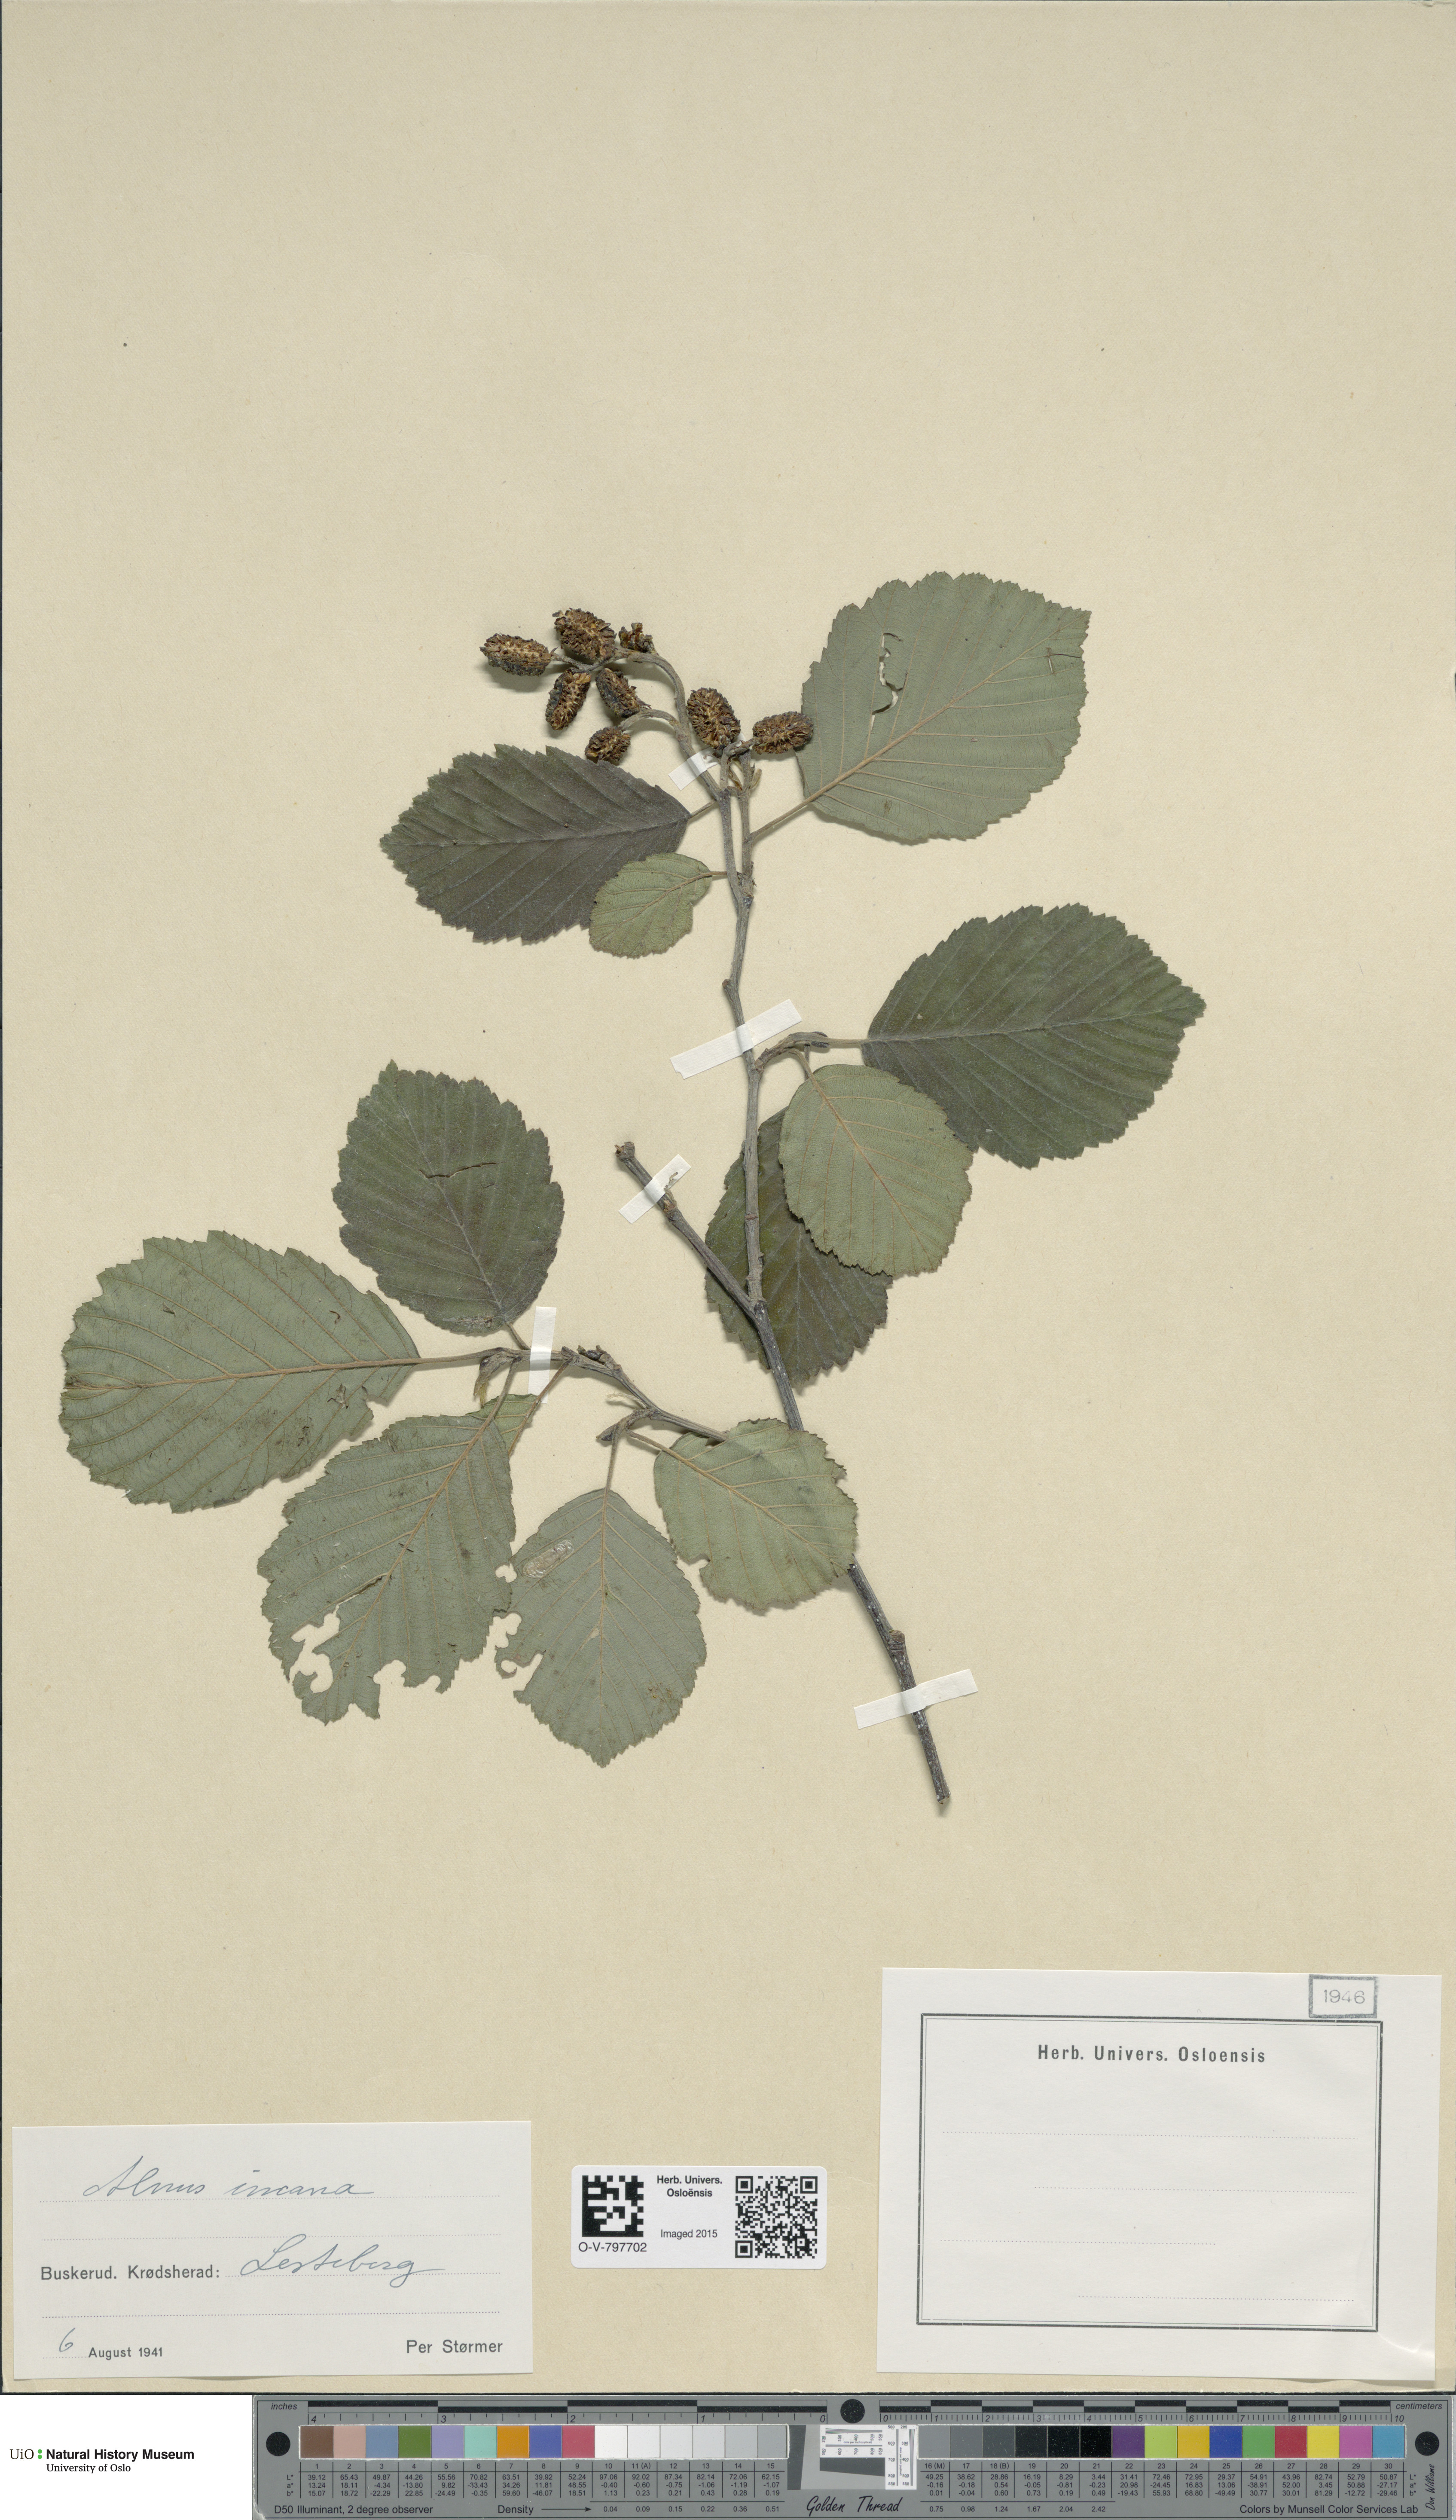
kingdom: Plantae
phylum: Tracheophyta
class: Magnoliopsida
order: Fagales
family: Betulaceae
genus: Alnus
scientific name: Alnus incana
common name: Grey alder
